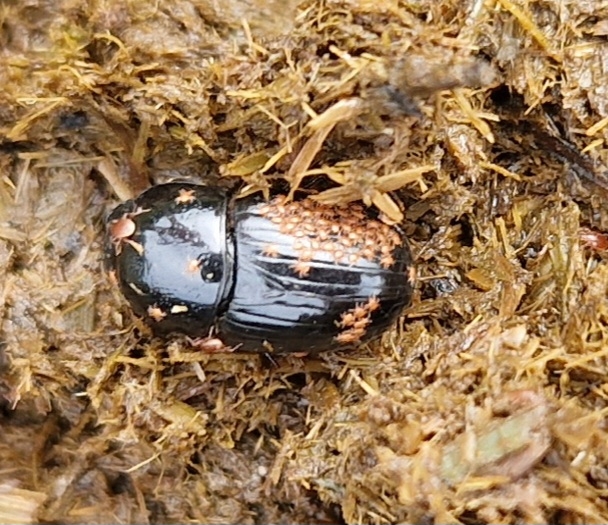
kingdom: Animalia
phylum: Arthropoda
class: Insecta
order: Coleoptera
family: Scarabaeidae
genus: Teuchestes
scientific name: Teuchestes fossor
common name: Stor møgbille
